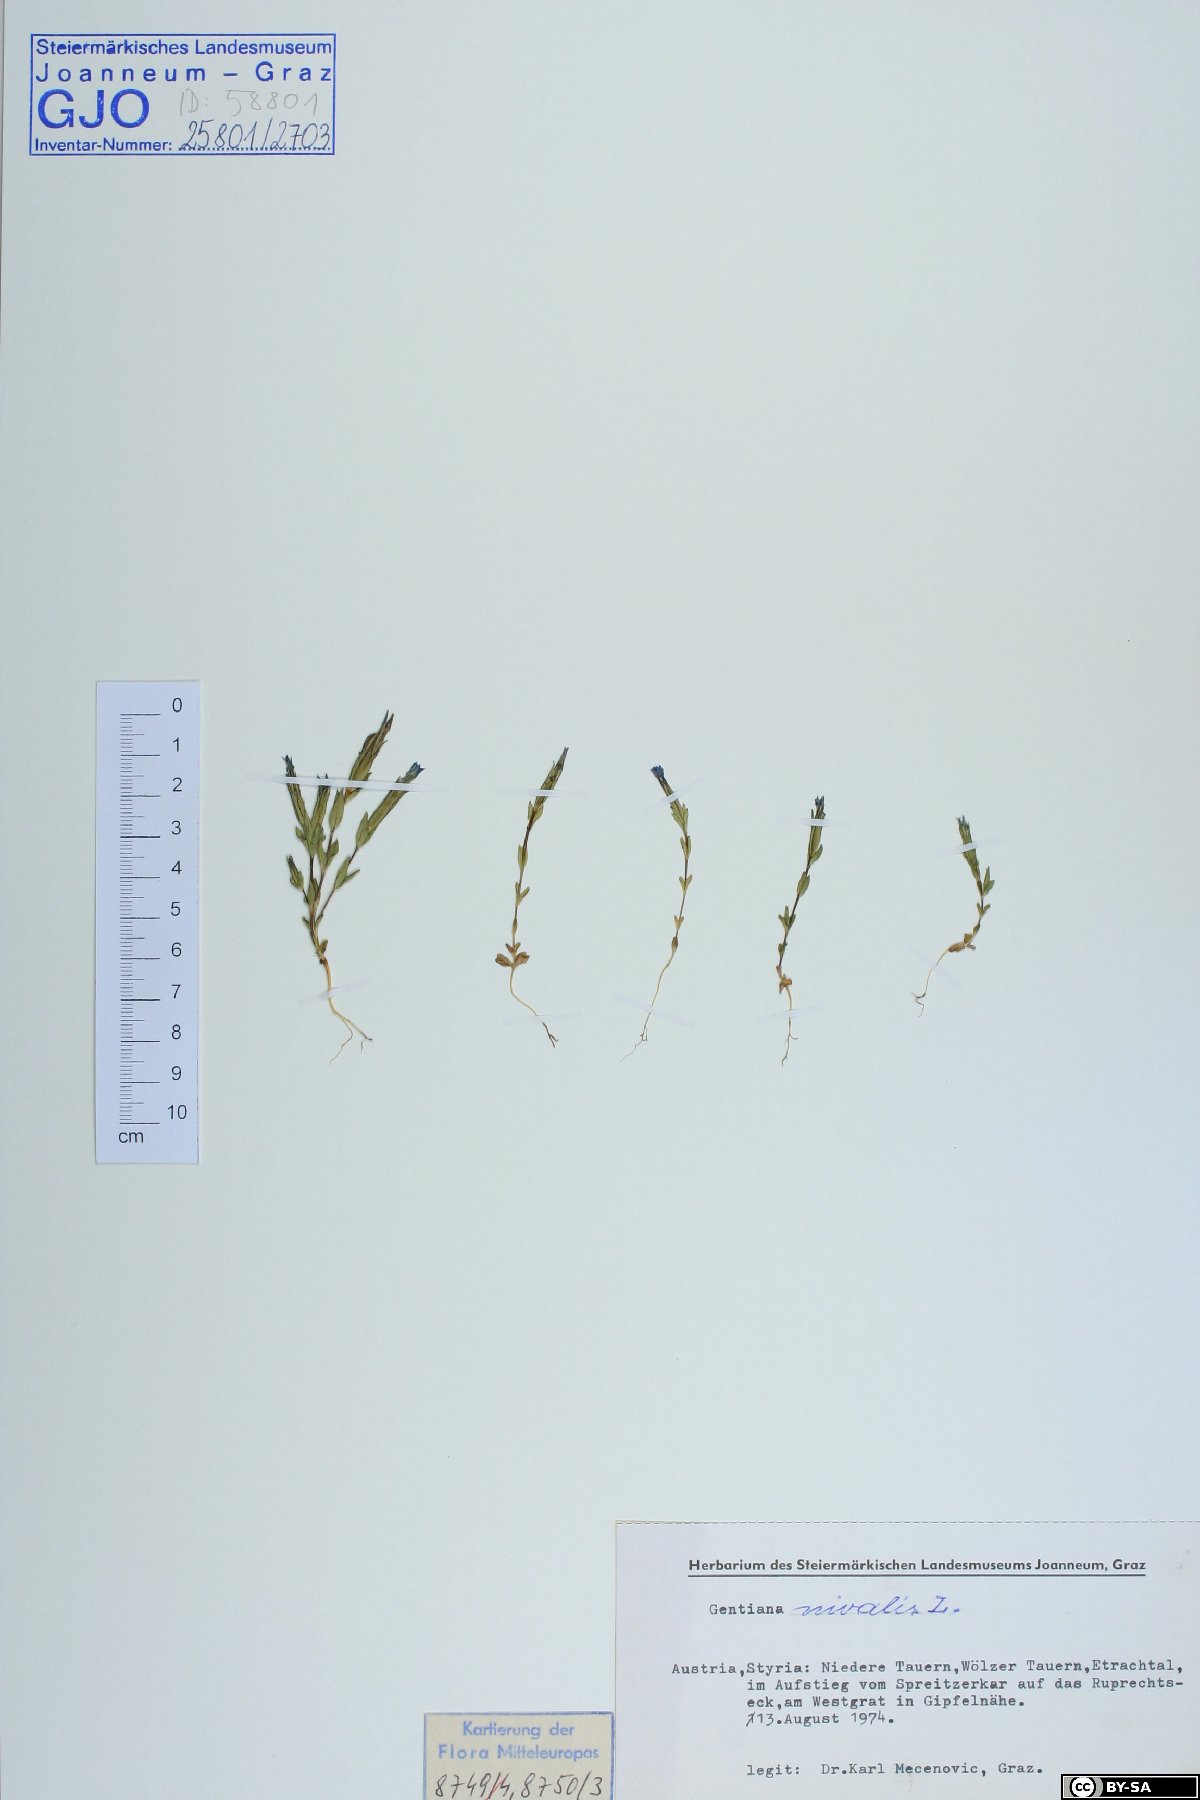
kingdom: Plantae
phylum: Tracheophyta
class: Magnoliopsida
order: Gentianales
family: Gentianaceae
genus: Gentiana
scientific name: Gentiana nivalis
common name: Alpine gentian
